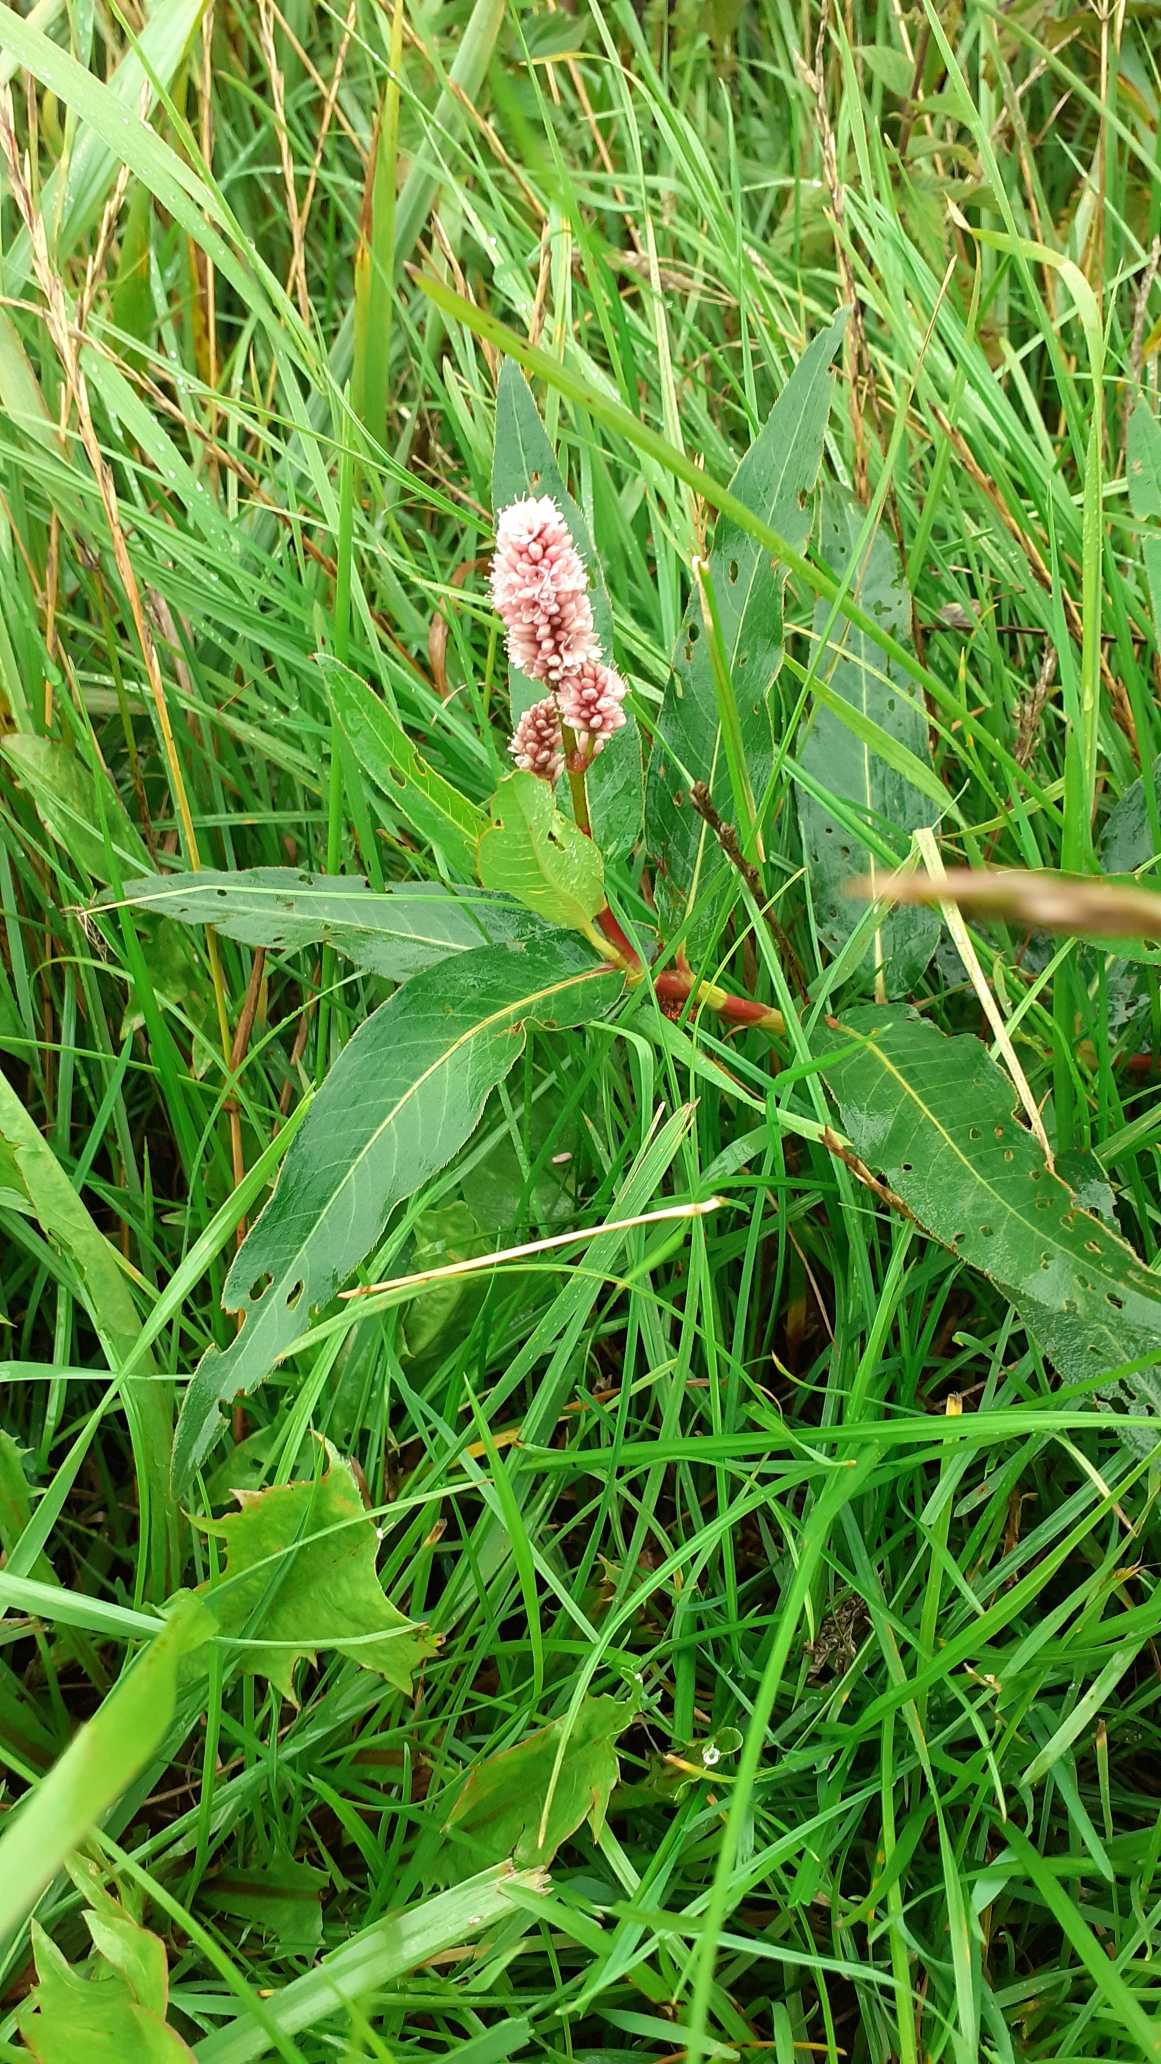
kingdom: Plantae
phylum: Tracheophyta
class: Magnoliopsida
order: Caryophyllales
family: Polygonaceae
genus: Persicaria
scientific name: Persicaria amphibia
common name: Vand-pileurt
